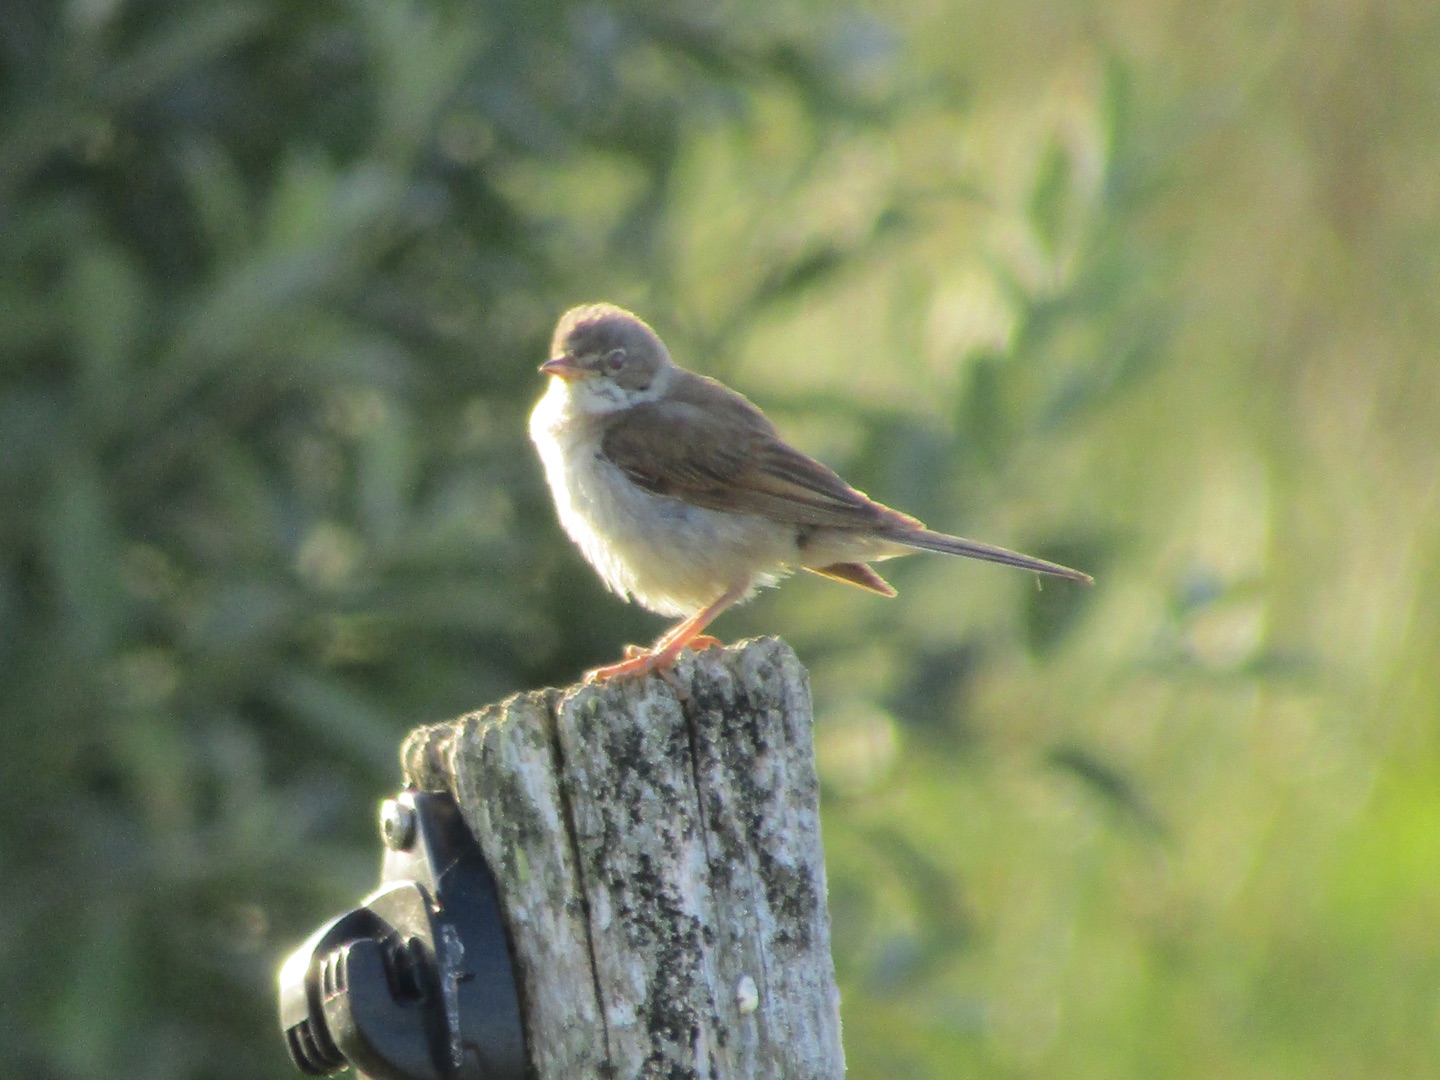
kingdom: Animalia
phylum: Chordata
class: Aves
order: Passeriformes
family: Sylviidae
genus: Sylvia
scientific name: Sylvia communis
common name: Tornsanger
